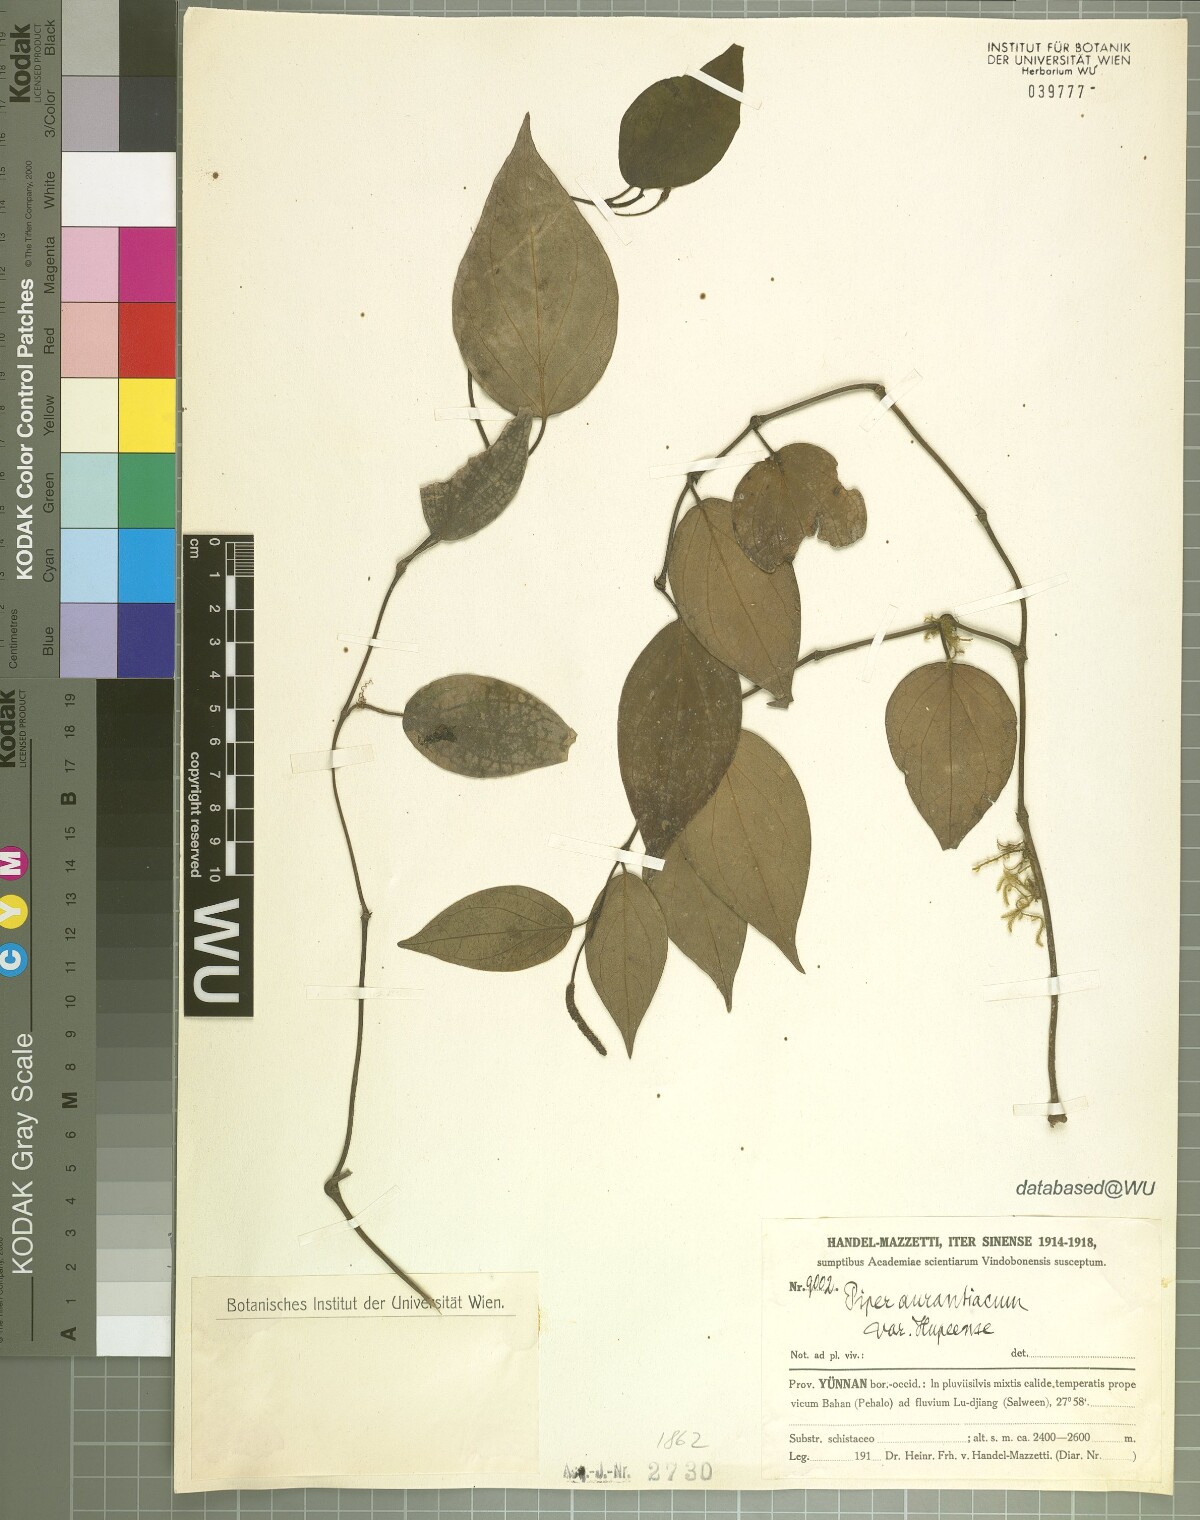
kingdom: Plantae
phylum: Tracheophyta
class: Magnoliopsida
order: Piperales
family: Piperaceae
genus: Piper
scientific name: Piper wallichii
